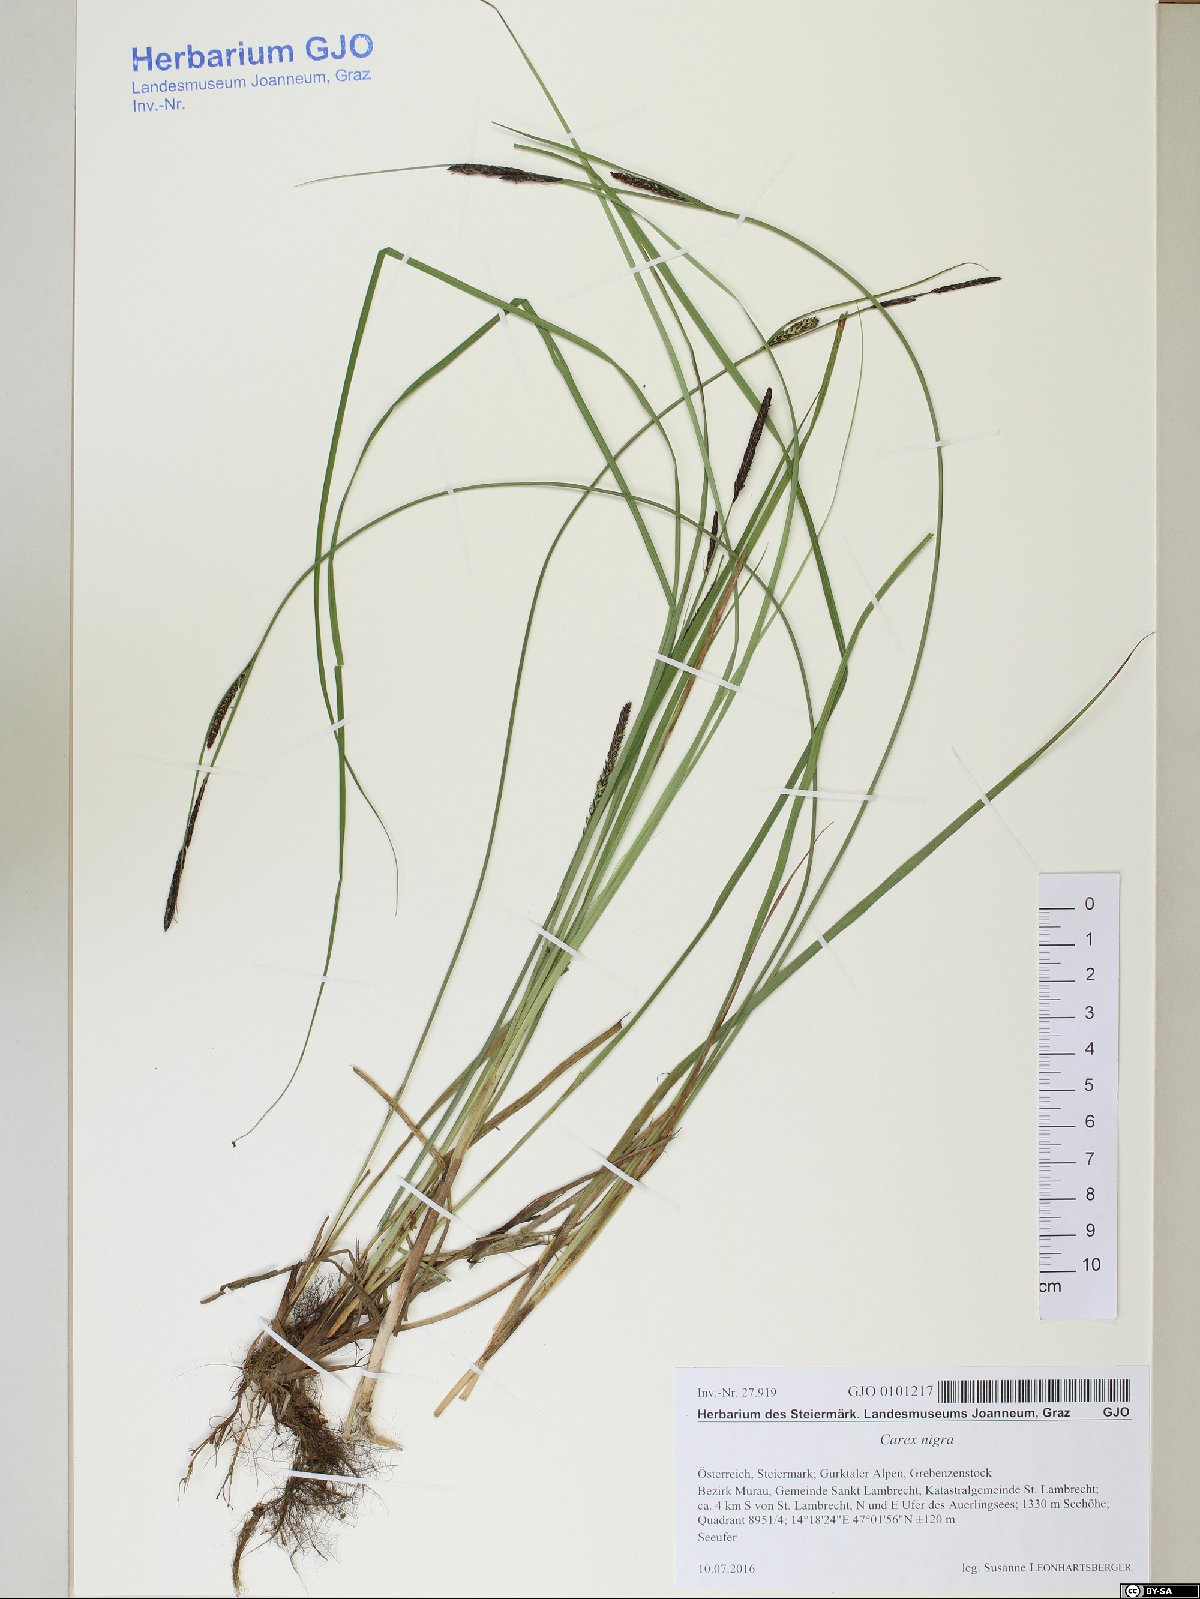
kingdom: Plantae
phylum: Tracheophyta
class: Liliopsida
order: Poales
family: Cyperaceae
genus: Carex
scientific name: Carex nigra
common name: Common sedge
